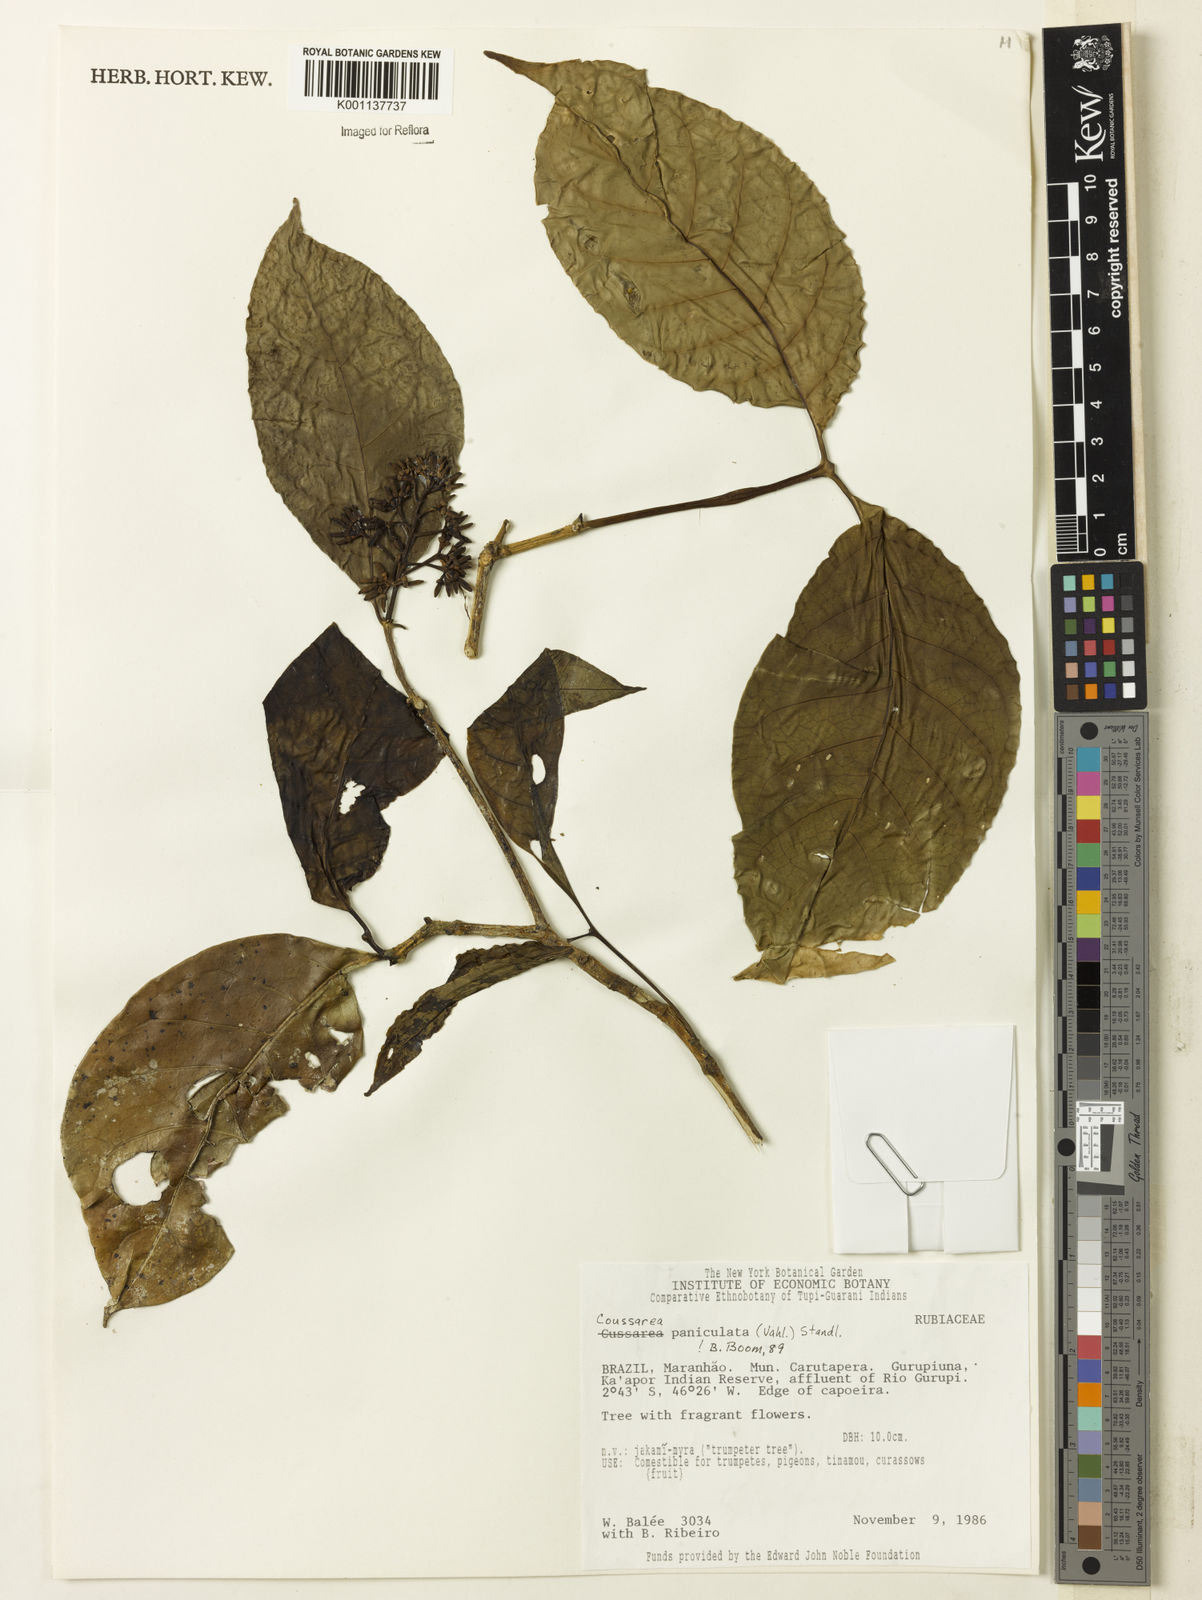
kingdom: Plantae
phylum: Tracheophyta
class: Magnoliopsida
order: Gentianales
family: Rubiaceae
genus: Coussarea
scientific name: Coussarea paniculata
